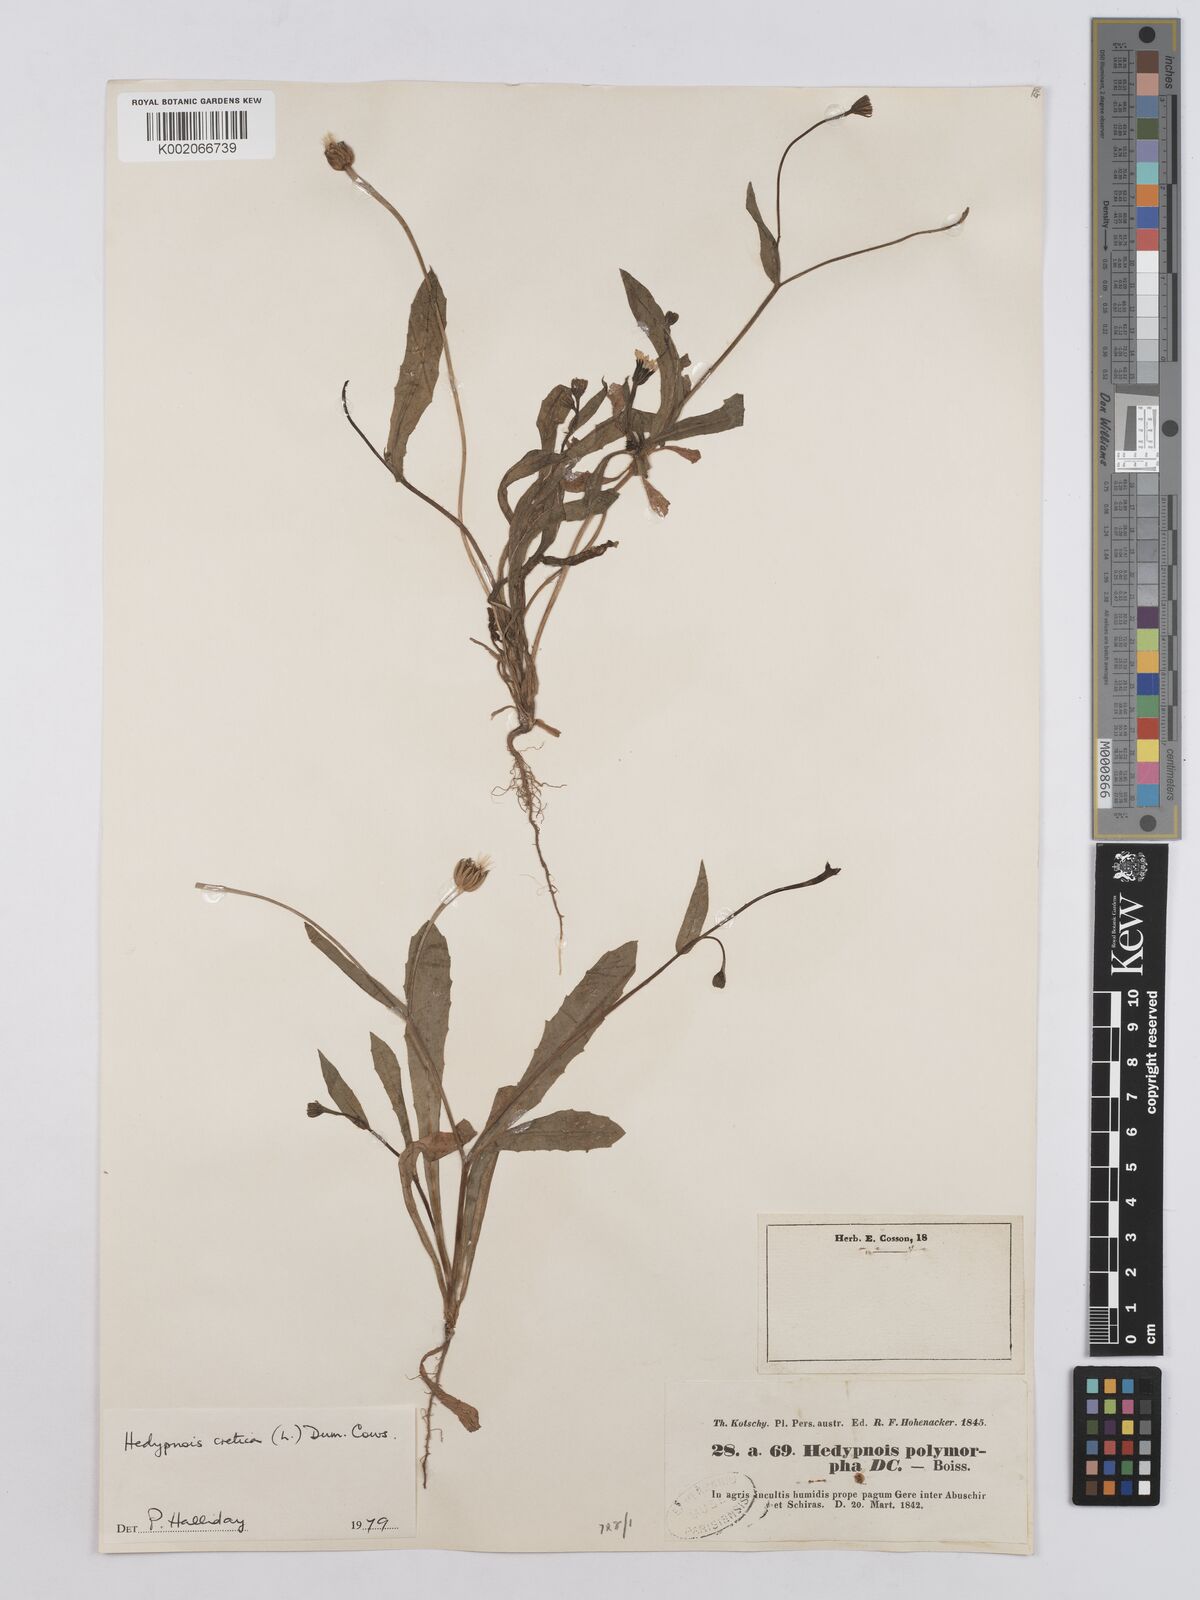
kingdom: Plantae
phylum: Tracheophyta
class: Magnoliopsida
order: Asterales
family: Asteraceae
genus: Hedypnois
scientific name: Hedypnois cretica
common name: Scaly hawkbit
